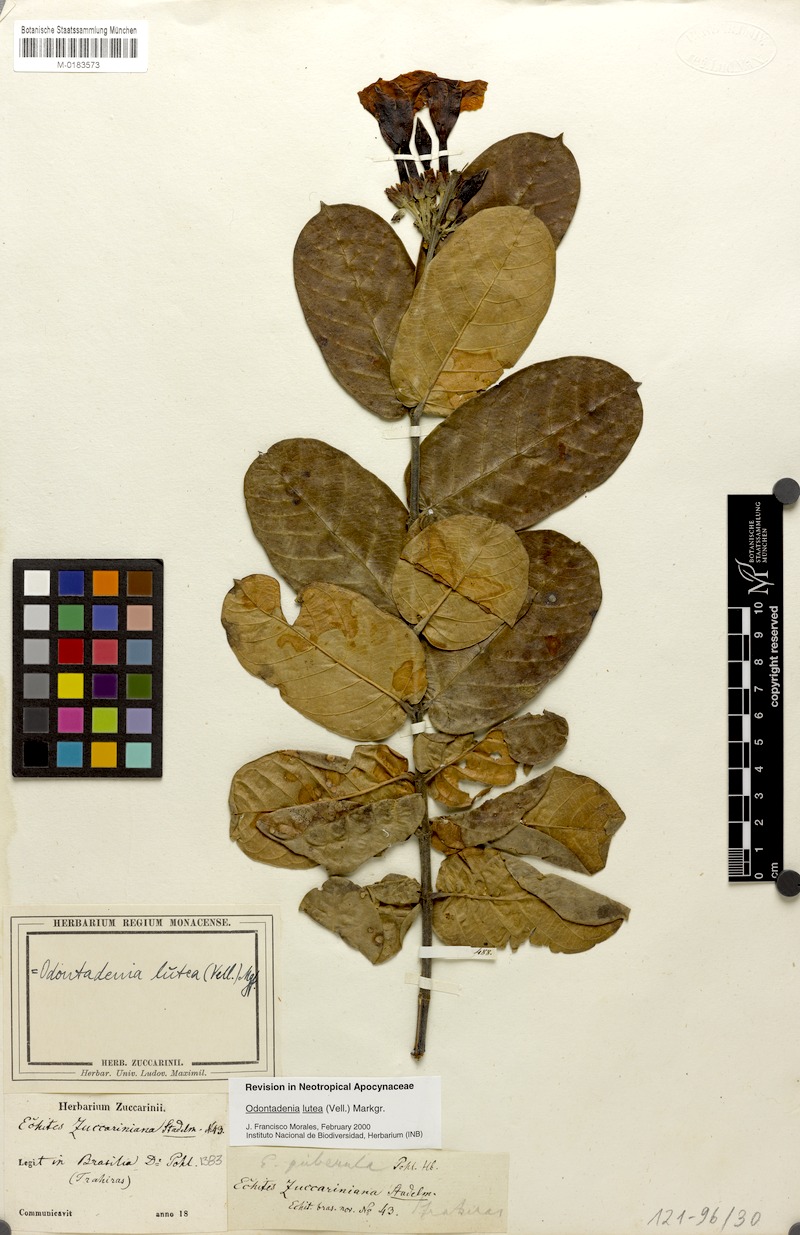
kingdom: Plantae
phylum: Tracheophyta
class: Magnoliopsida
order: Gentianales
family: Apocynaceae
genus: Odontadenia
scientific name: Odontadenia lutea
